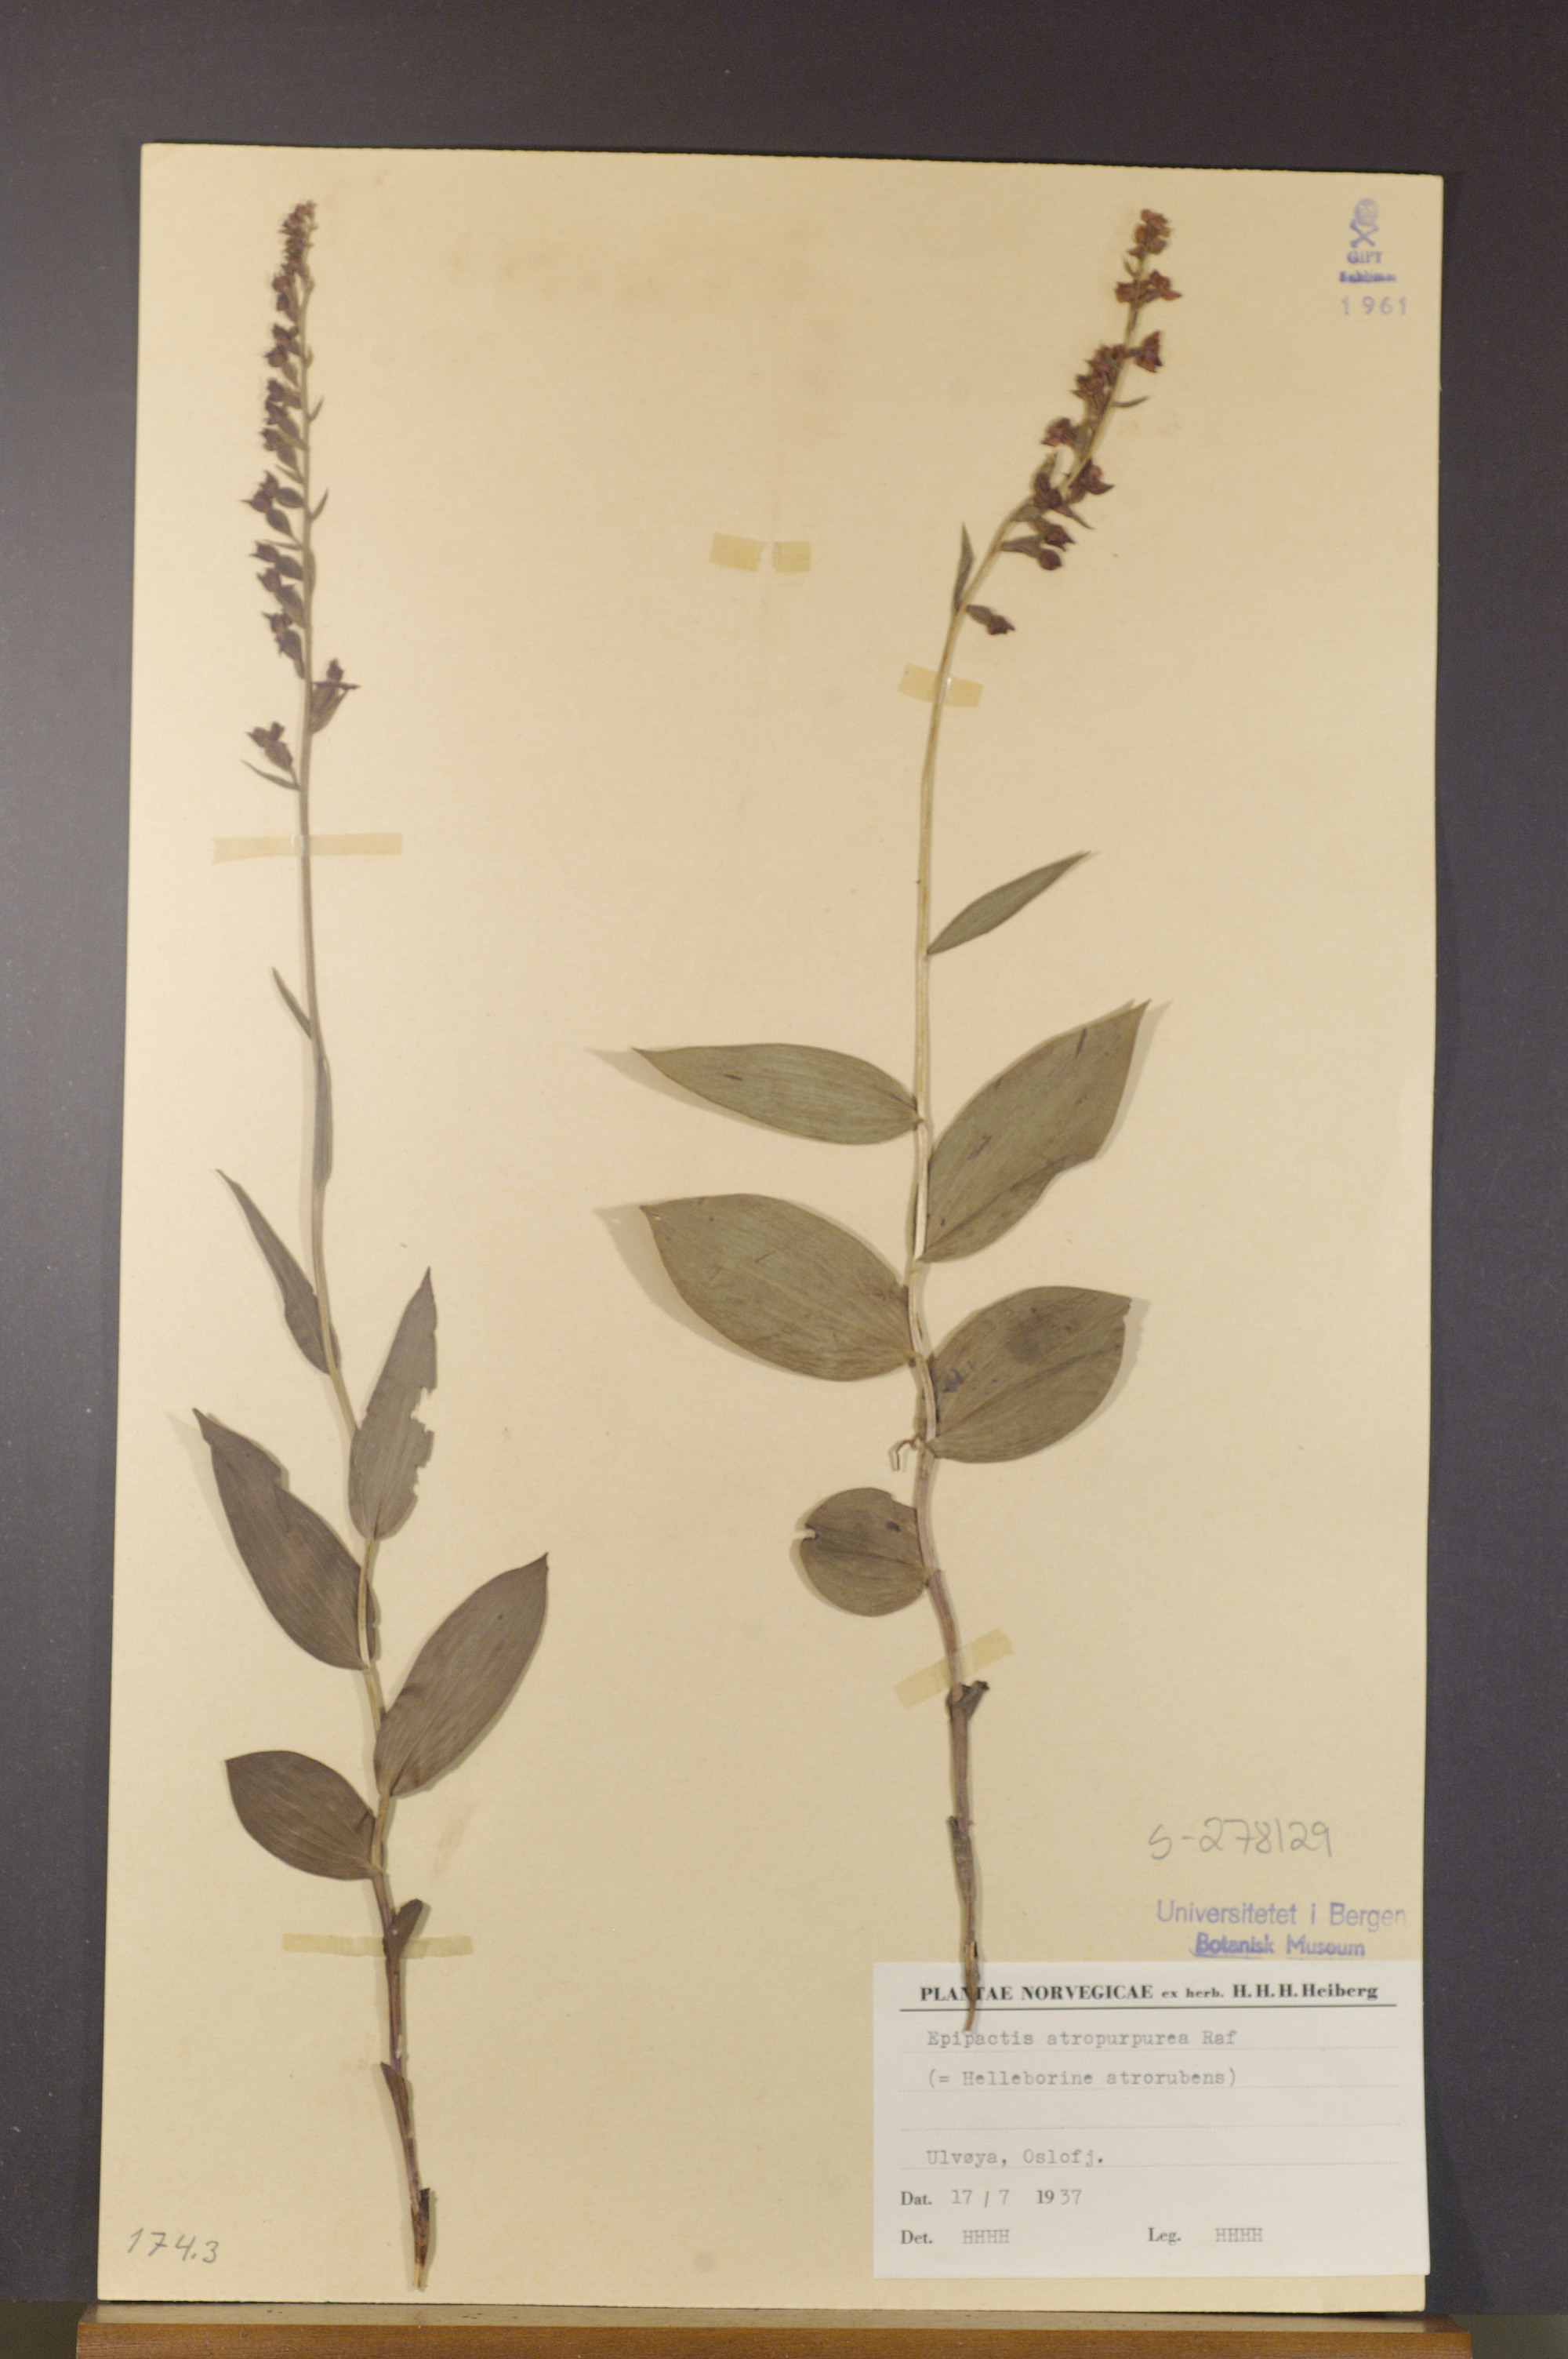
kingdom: Plantae
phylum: Tracheophyta
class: Liliopsida
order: Asparagales
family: Orchidaceae
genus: Epipactis
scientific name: Epipactis atrorubens
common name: Dark-red helleborine
